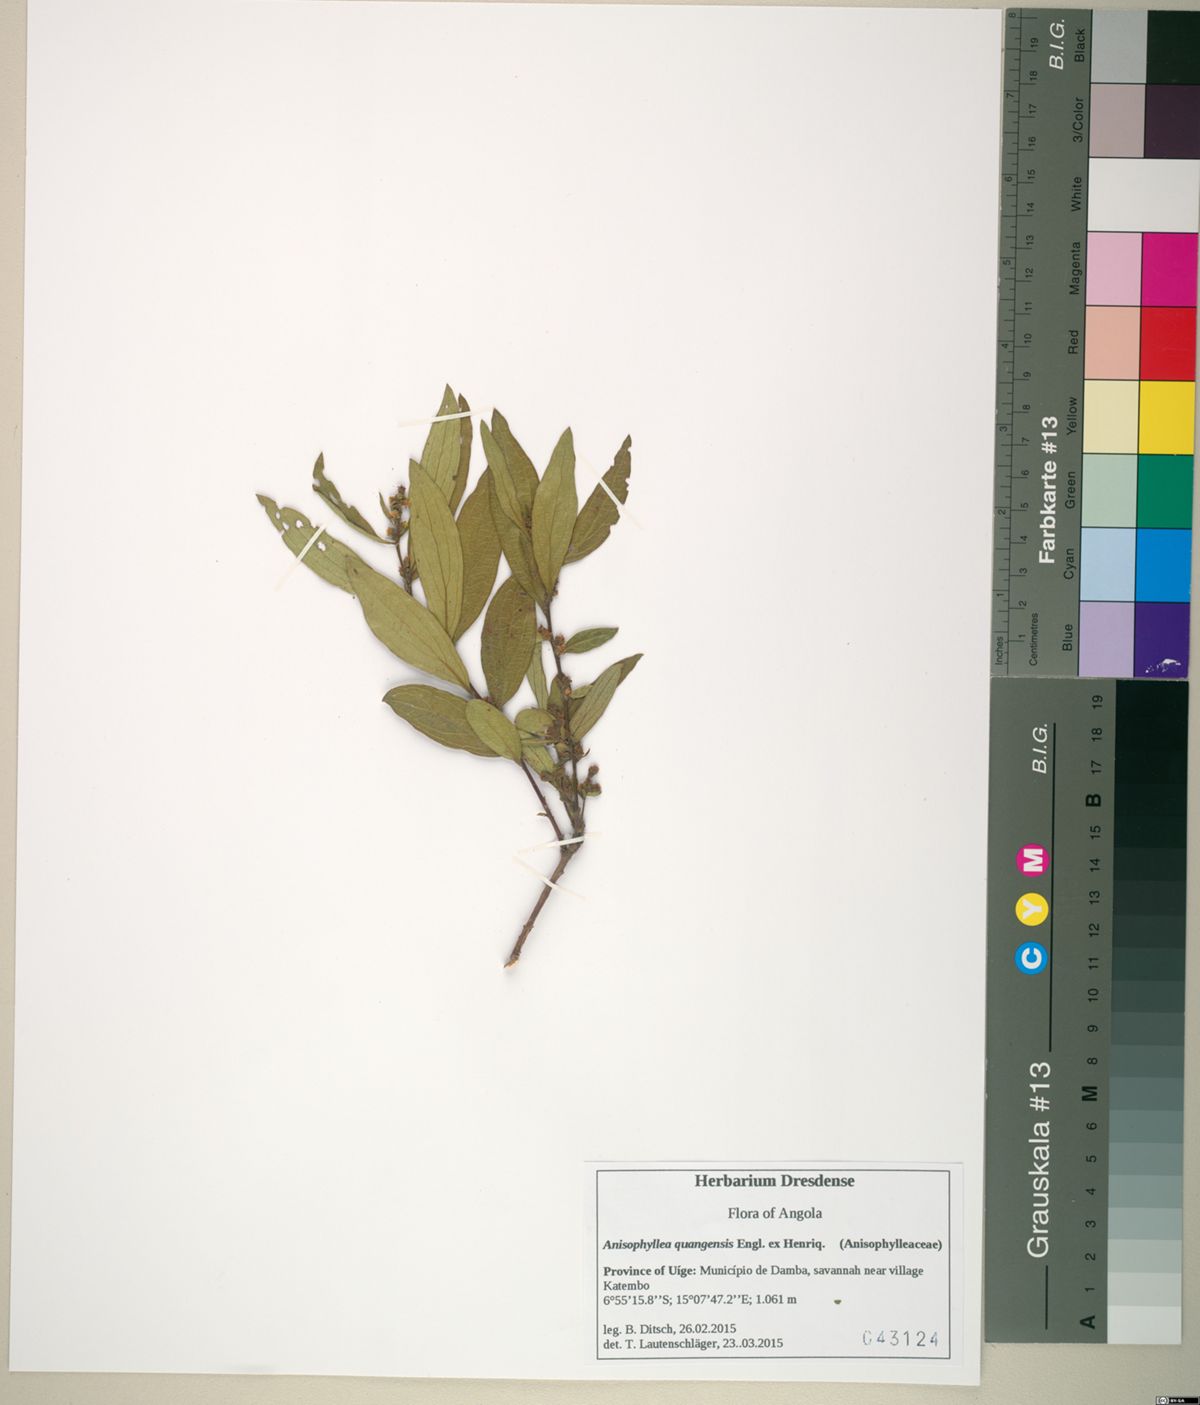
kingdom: Plantae
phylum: Tracheophyta
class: Magnoliopsida
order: Cucurbitales
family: Anisophylleaceae
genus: Anisophyllea
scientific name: Anisophyllea quangensis
